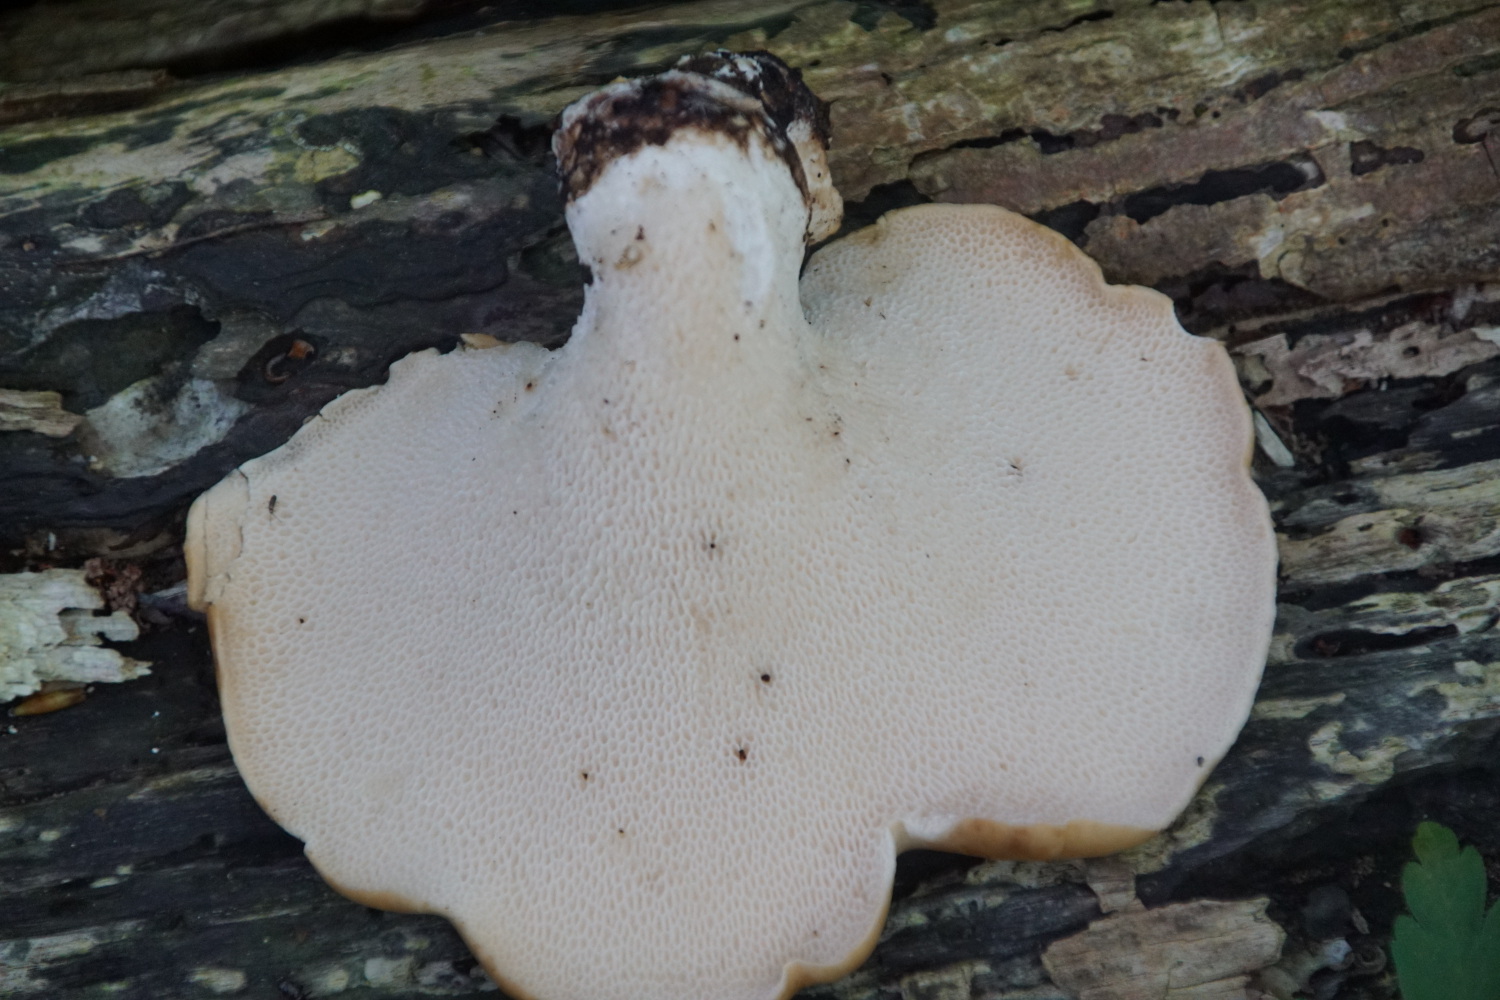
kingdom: Fungi
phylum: Basidiomycota
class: Agaricomycetes
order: Polyporales
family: Polyporaceae
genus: Cerioporus
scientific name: Cerioporus squamosus
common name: skællet stilkporesvamp
